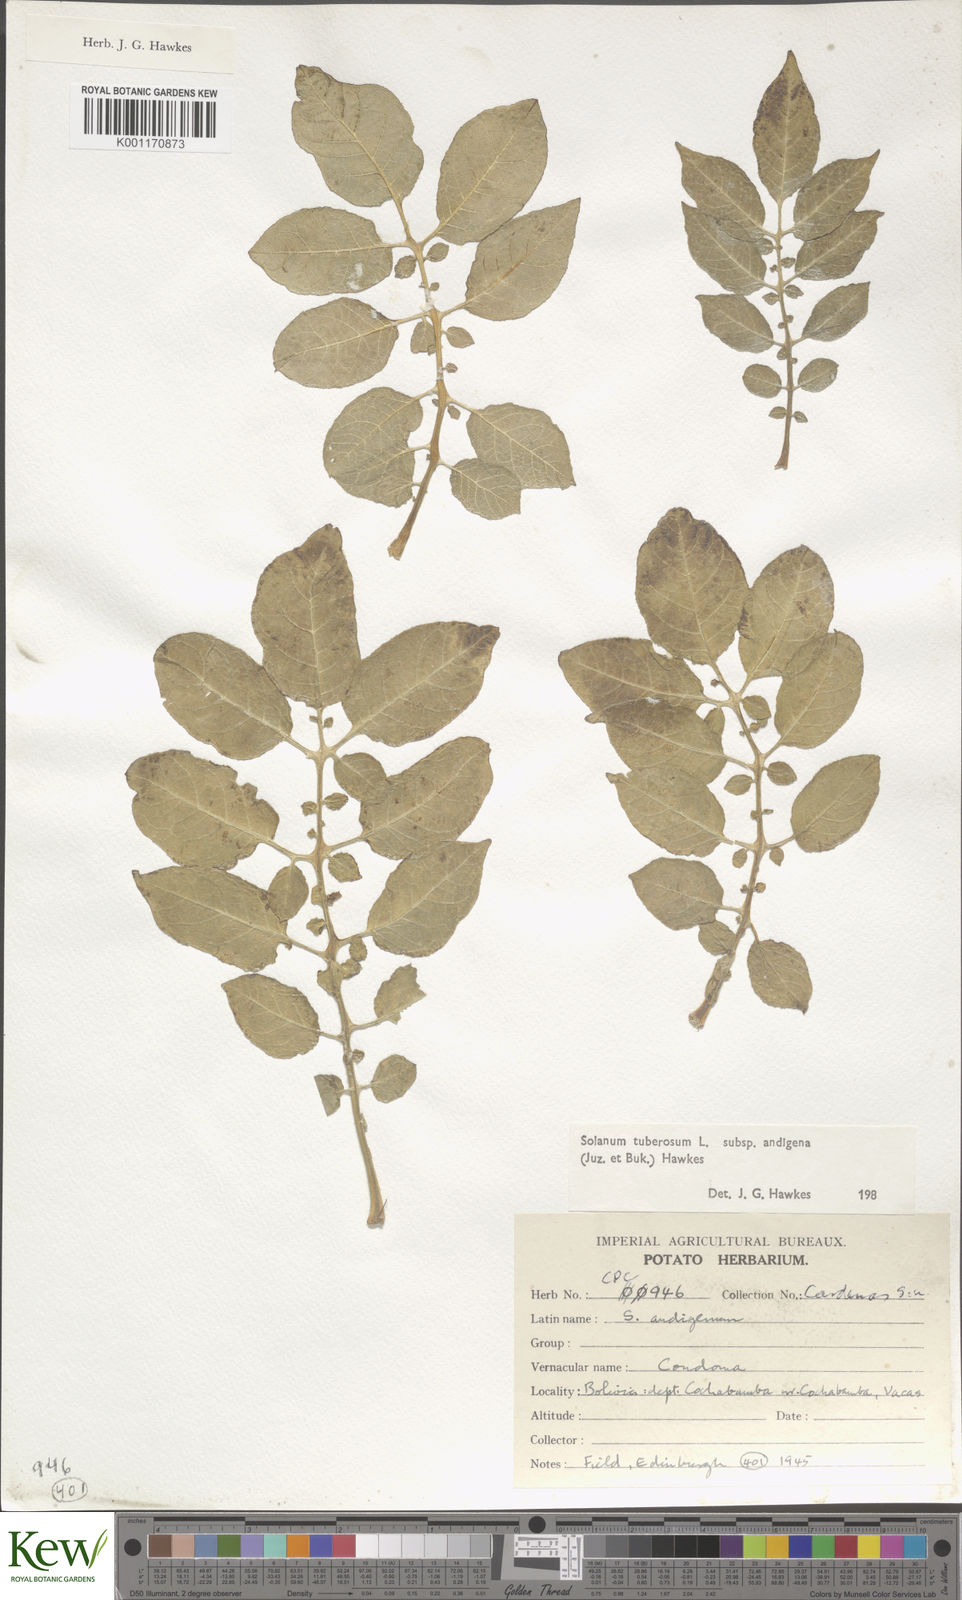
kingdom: Plantae
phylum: Tracheophyta
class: Magnoliopsida
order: Solanales
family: Solanaceae
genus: Solanum
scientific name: Solanum tuberosum
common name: Potato
